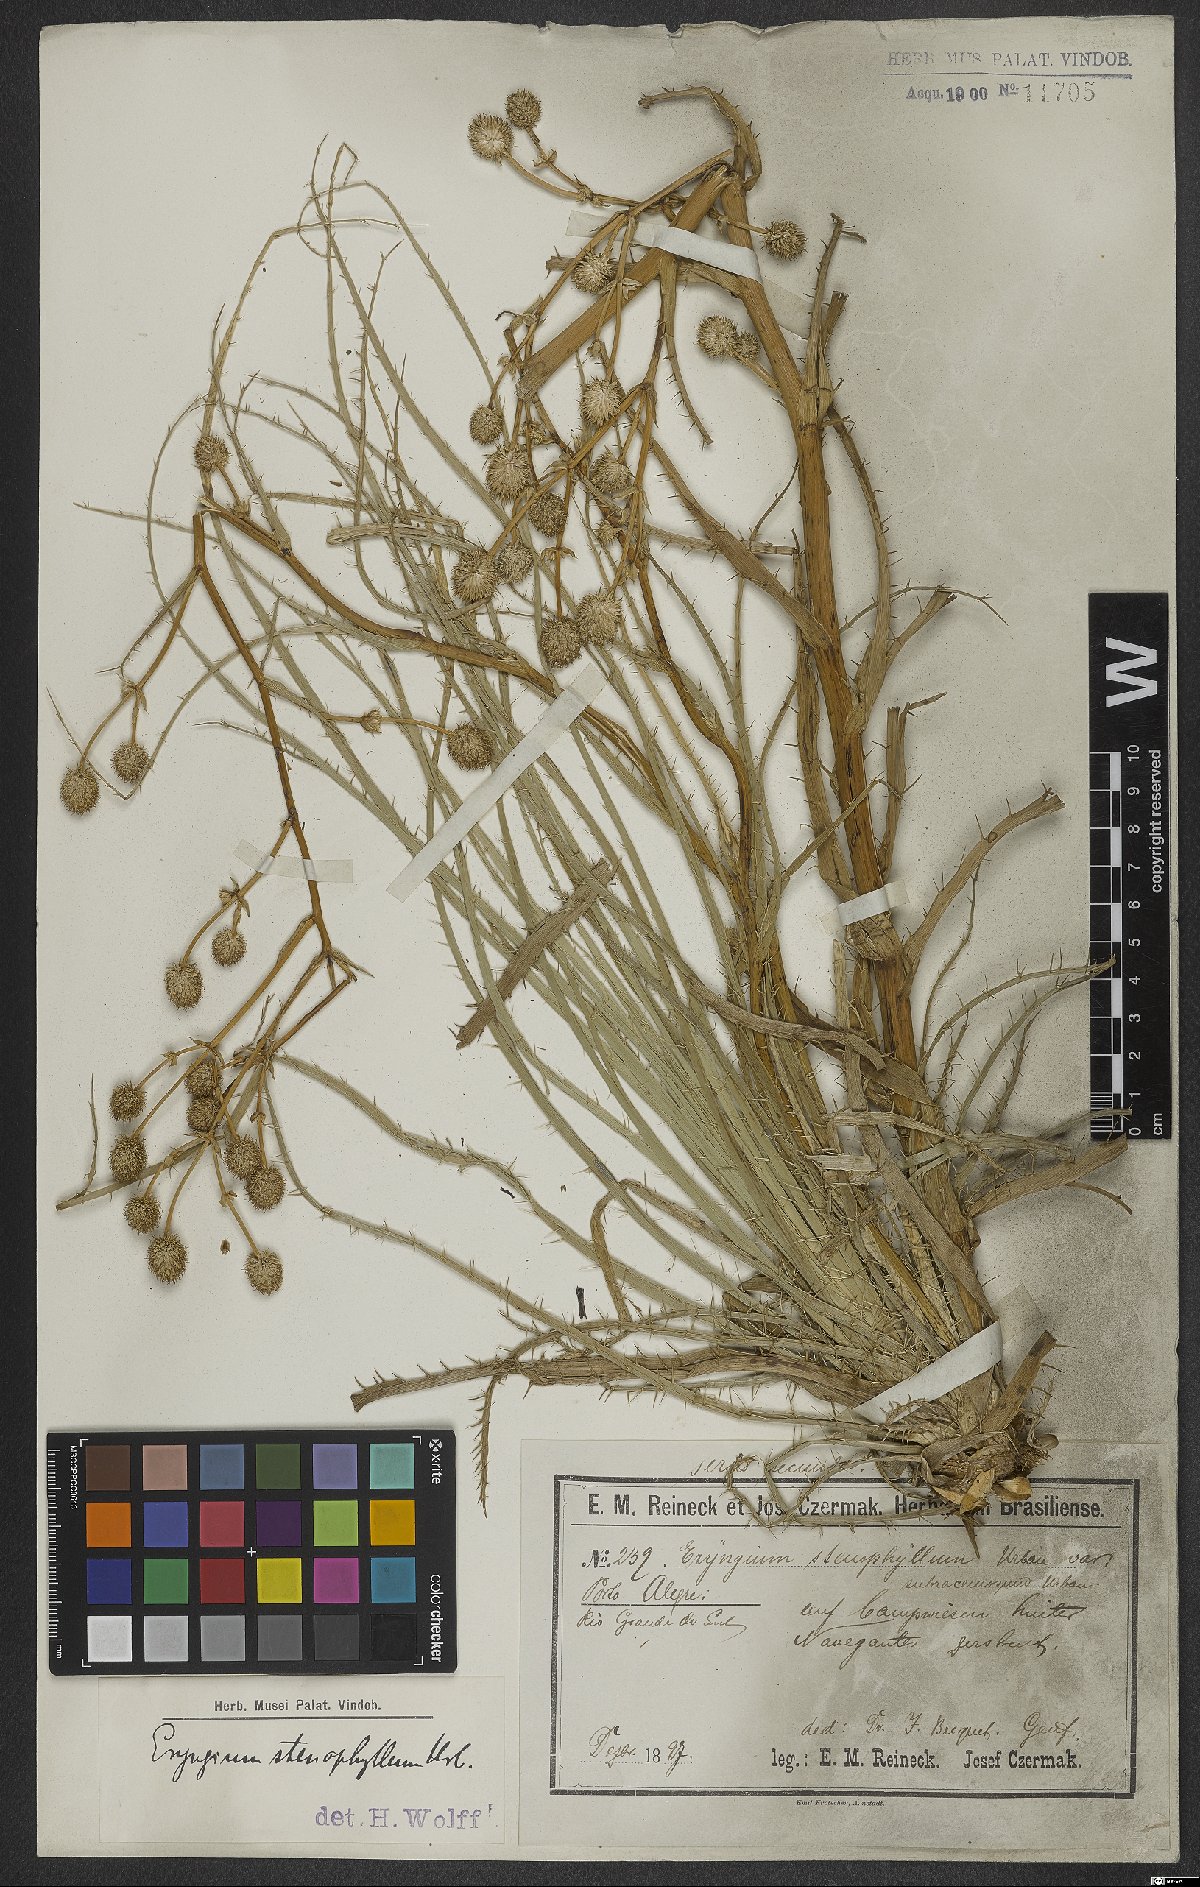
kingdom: Plantae
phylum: Tracheophyta
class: Magnoliopsida
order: Apiales
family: Apiaceae
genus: Eryngium
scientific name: Eryngium stenophyllum
